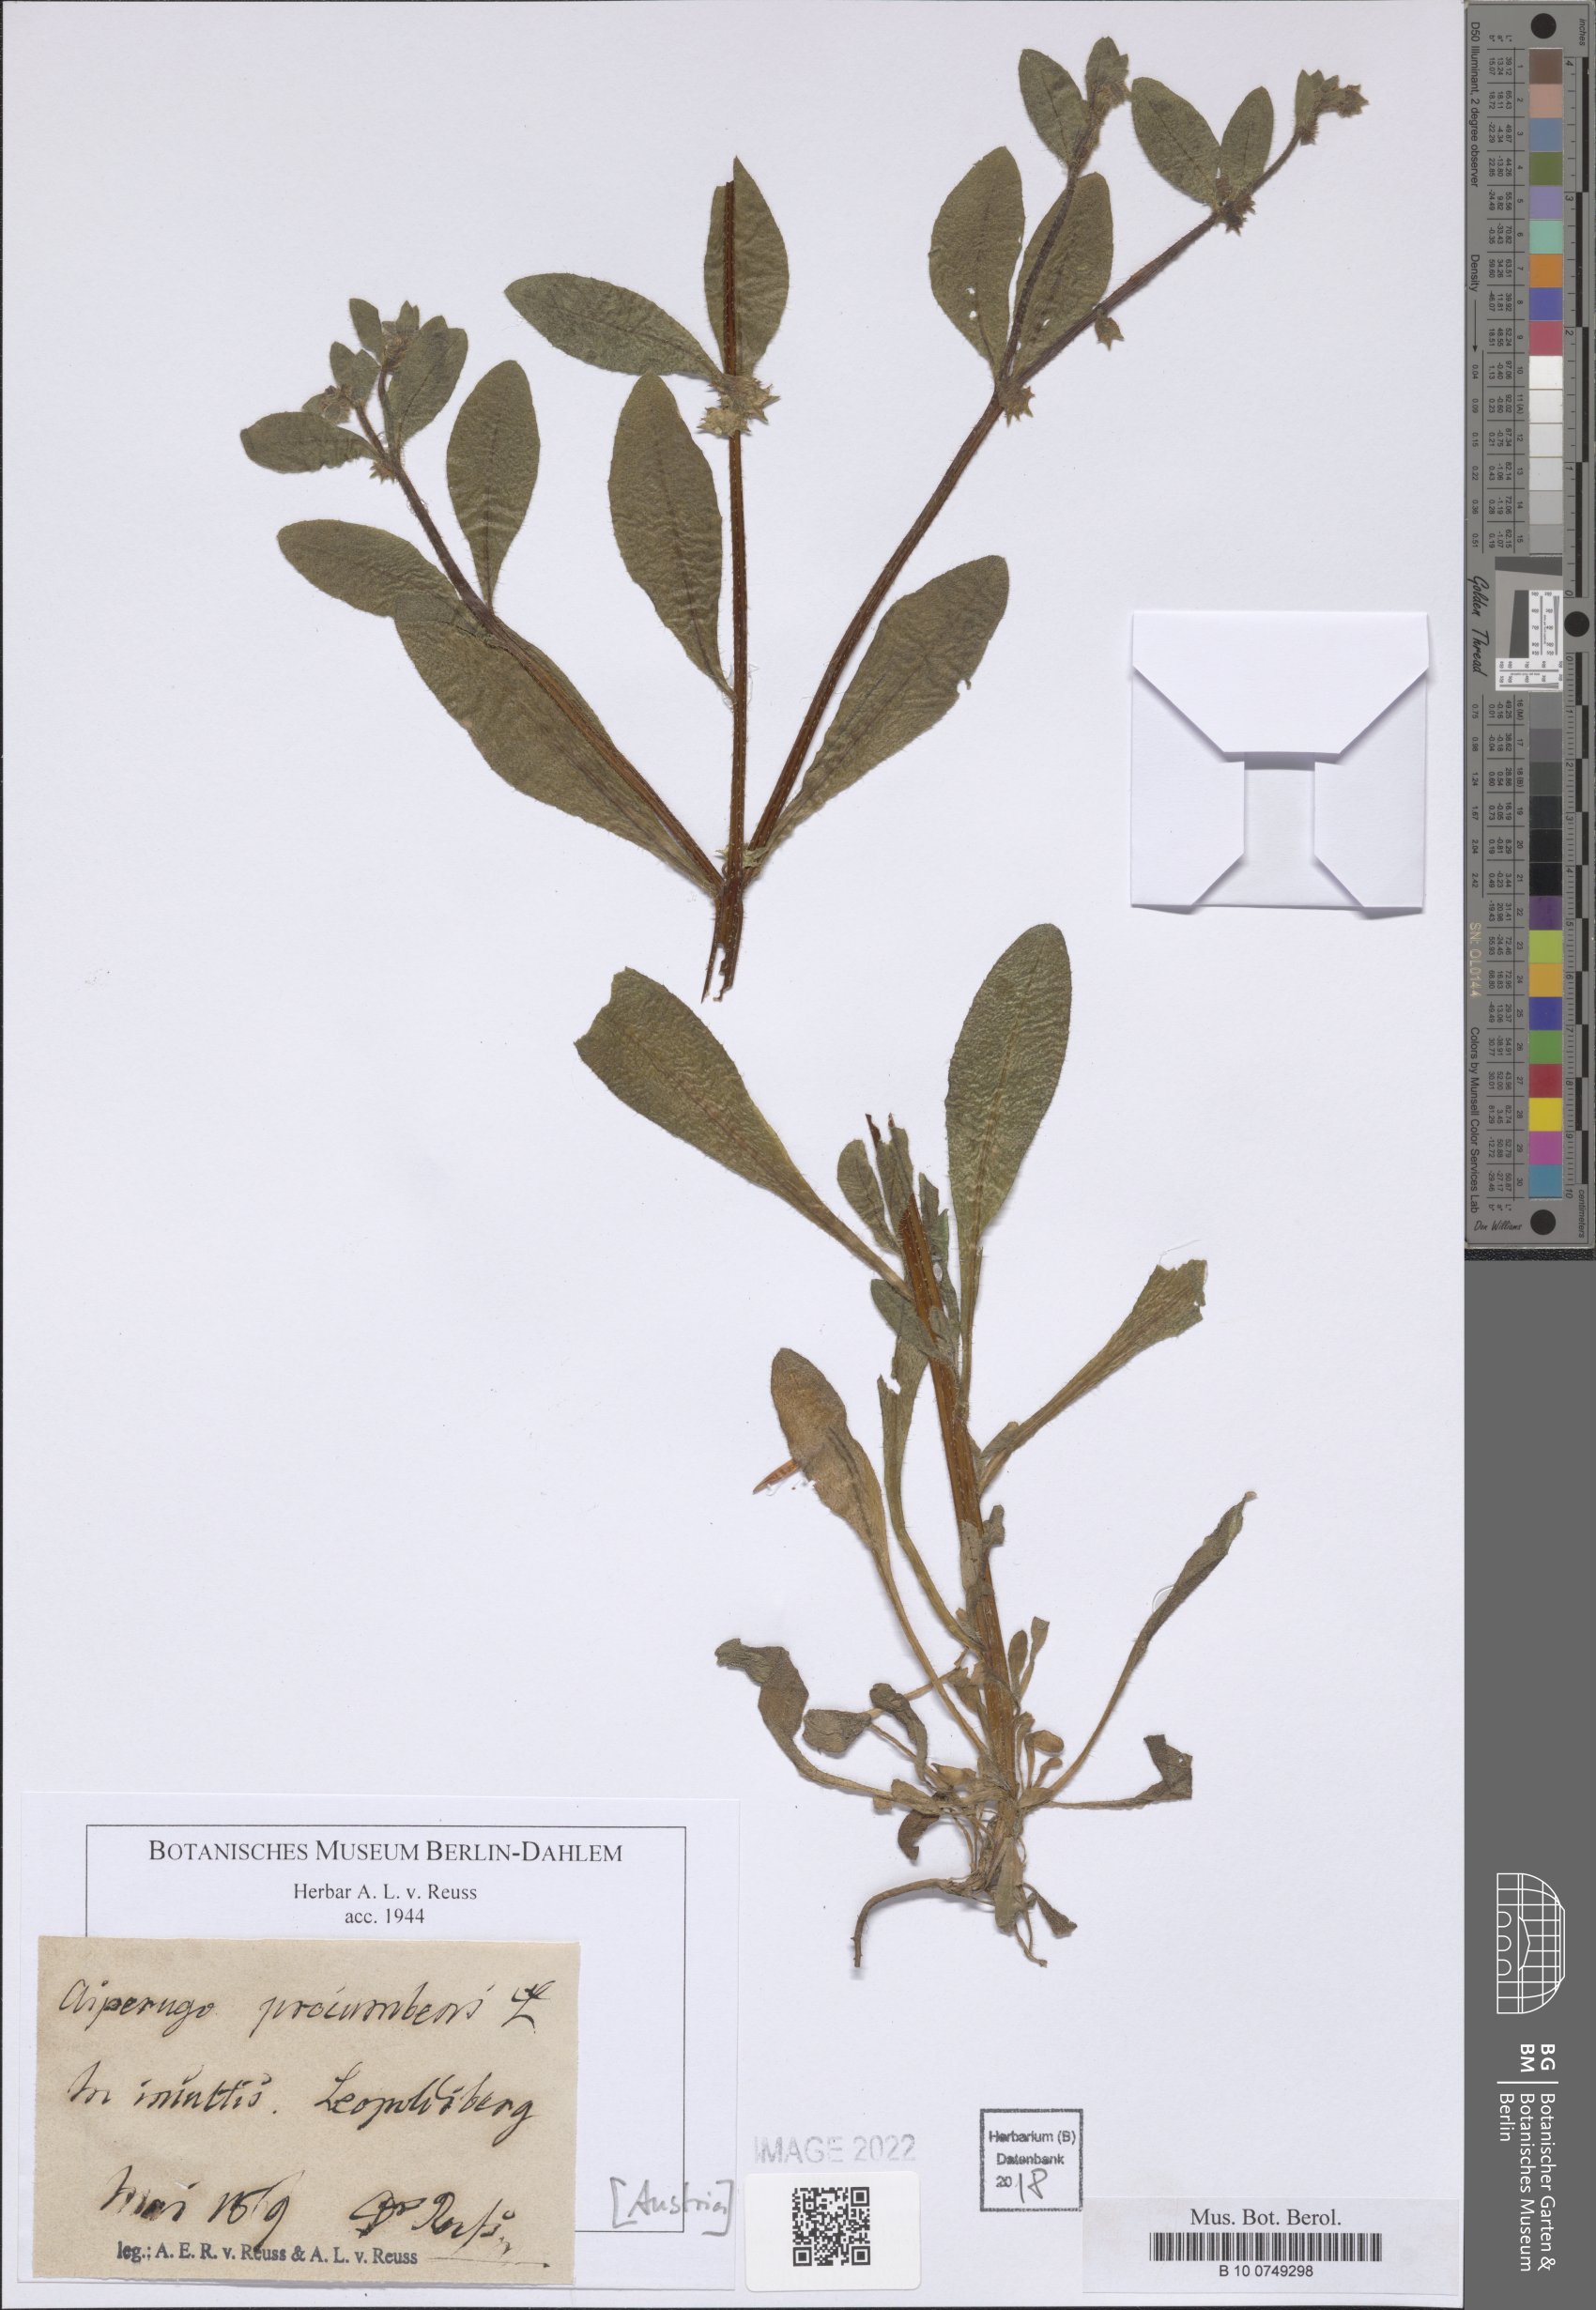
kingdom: Plantae
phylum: Tracheophyta
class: Magnoliopsida
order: Boraginales
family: Boraginaceae
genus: Asperugo
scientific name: Asperugo procumbens
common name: Madwort
